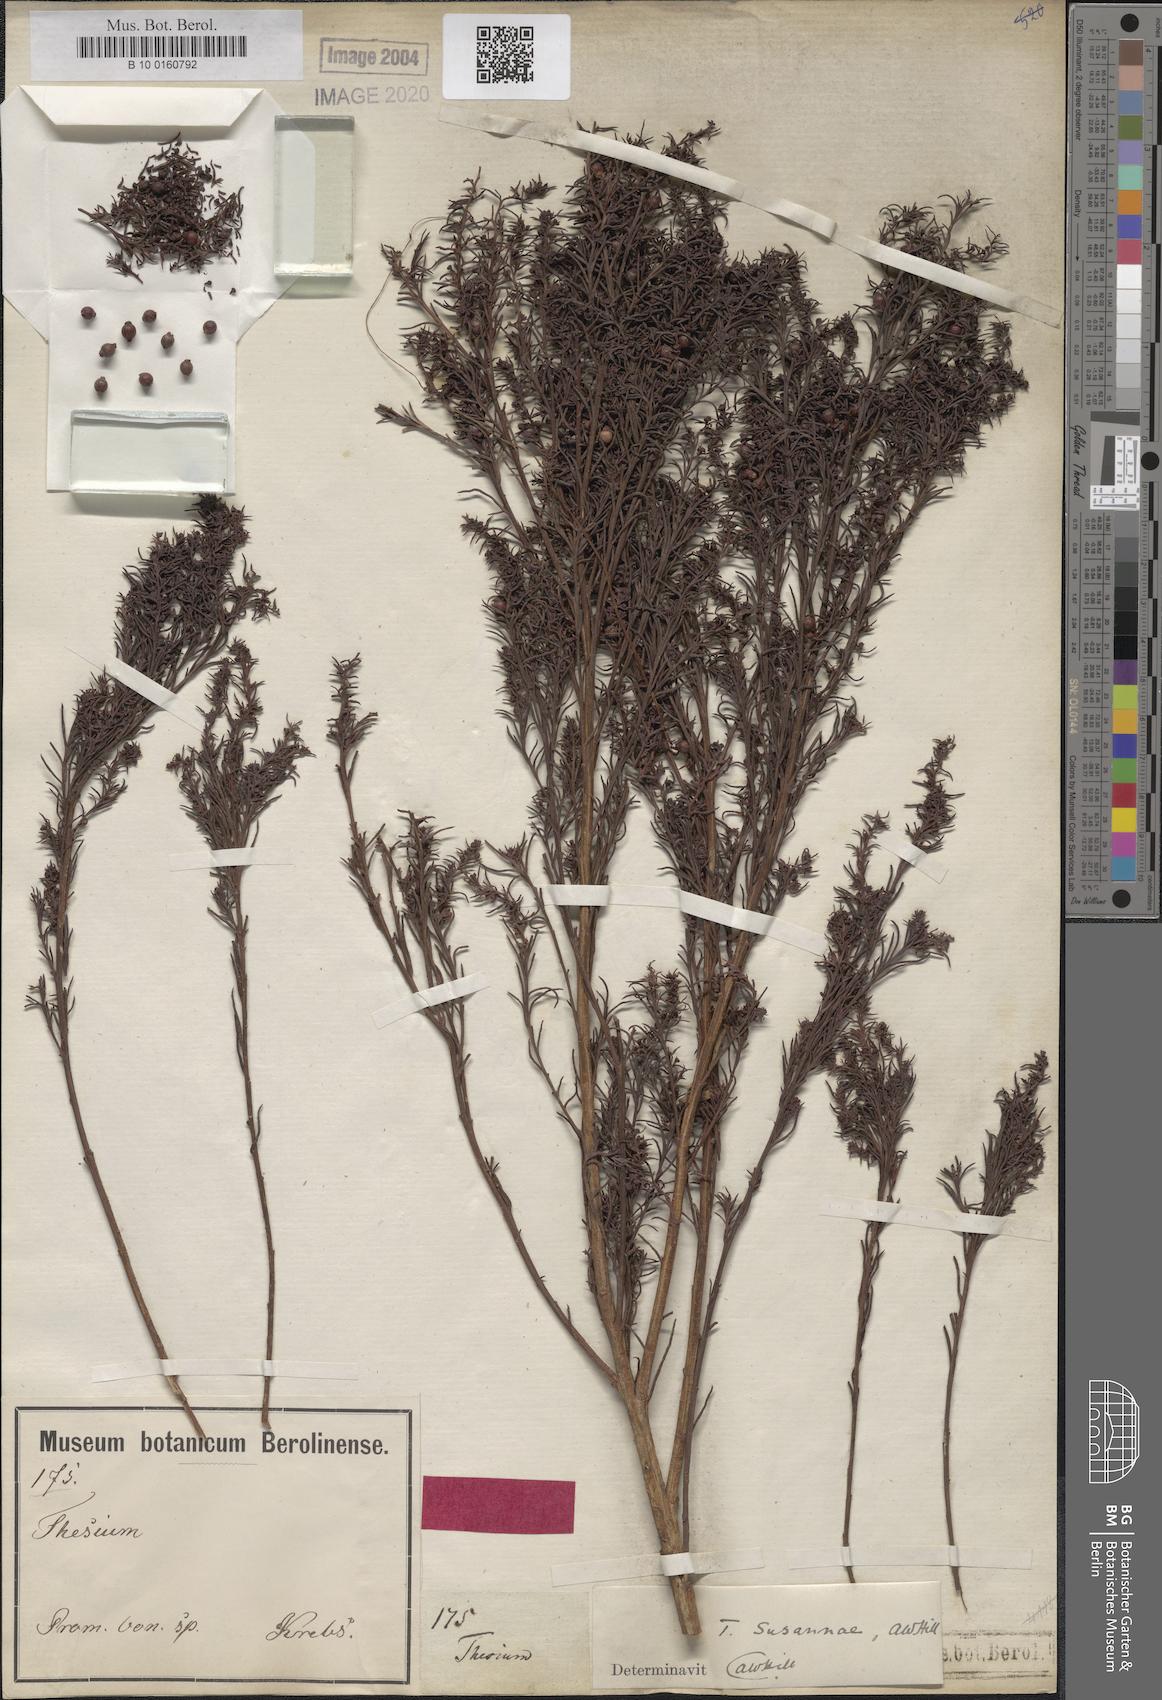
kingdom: Plantae
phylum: Tracheophyta
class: Magnoliopsida
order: Santalales
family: Thesiaceae
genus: Thesium
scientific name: Thesium susannae
